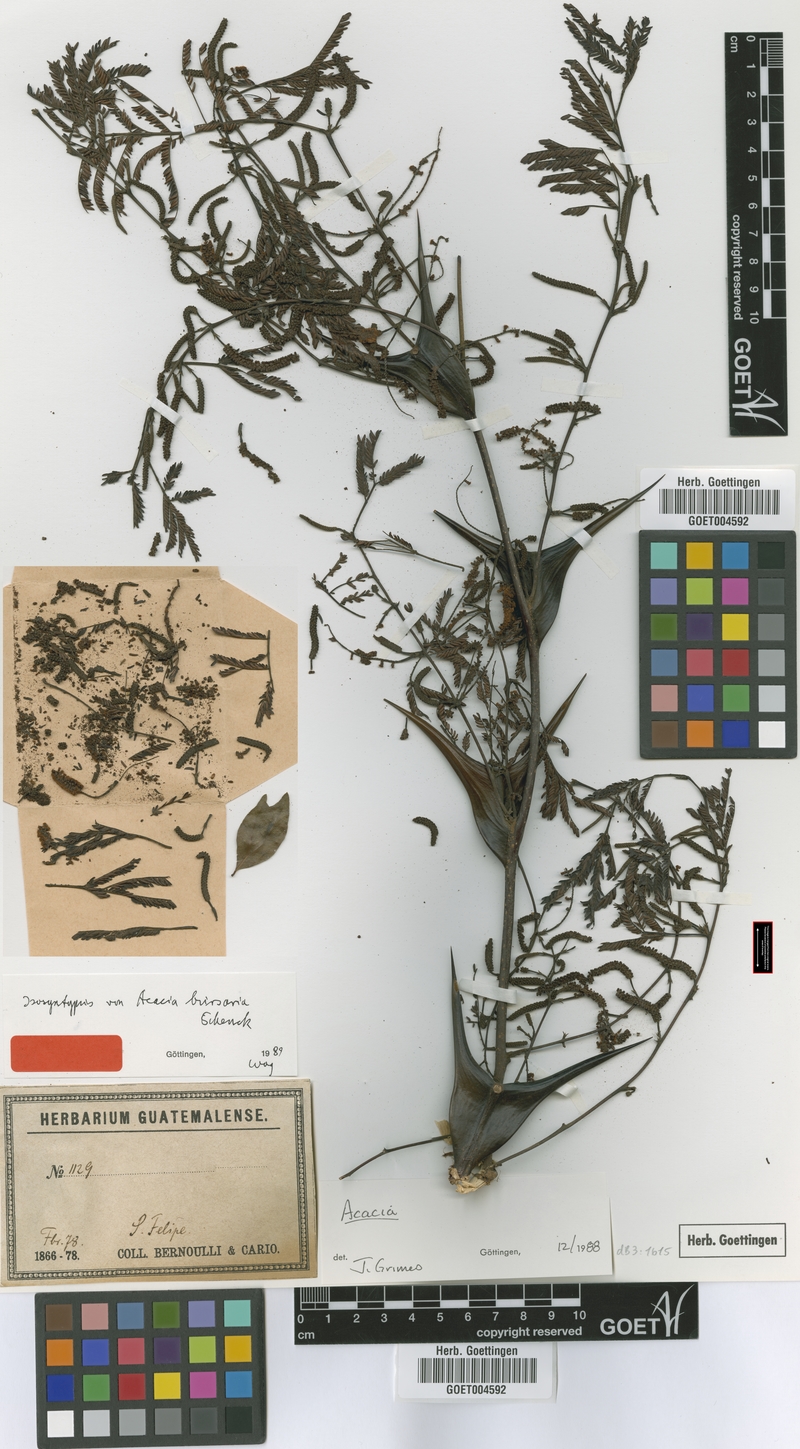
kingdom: Plantae
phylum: Tracheophyta
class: Magnoliopsida
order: Fabales
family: Fabaceae
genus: Vachellia
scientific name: Vachellia hindsii
